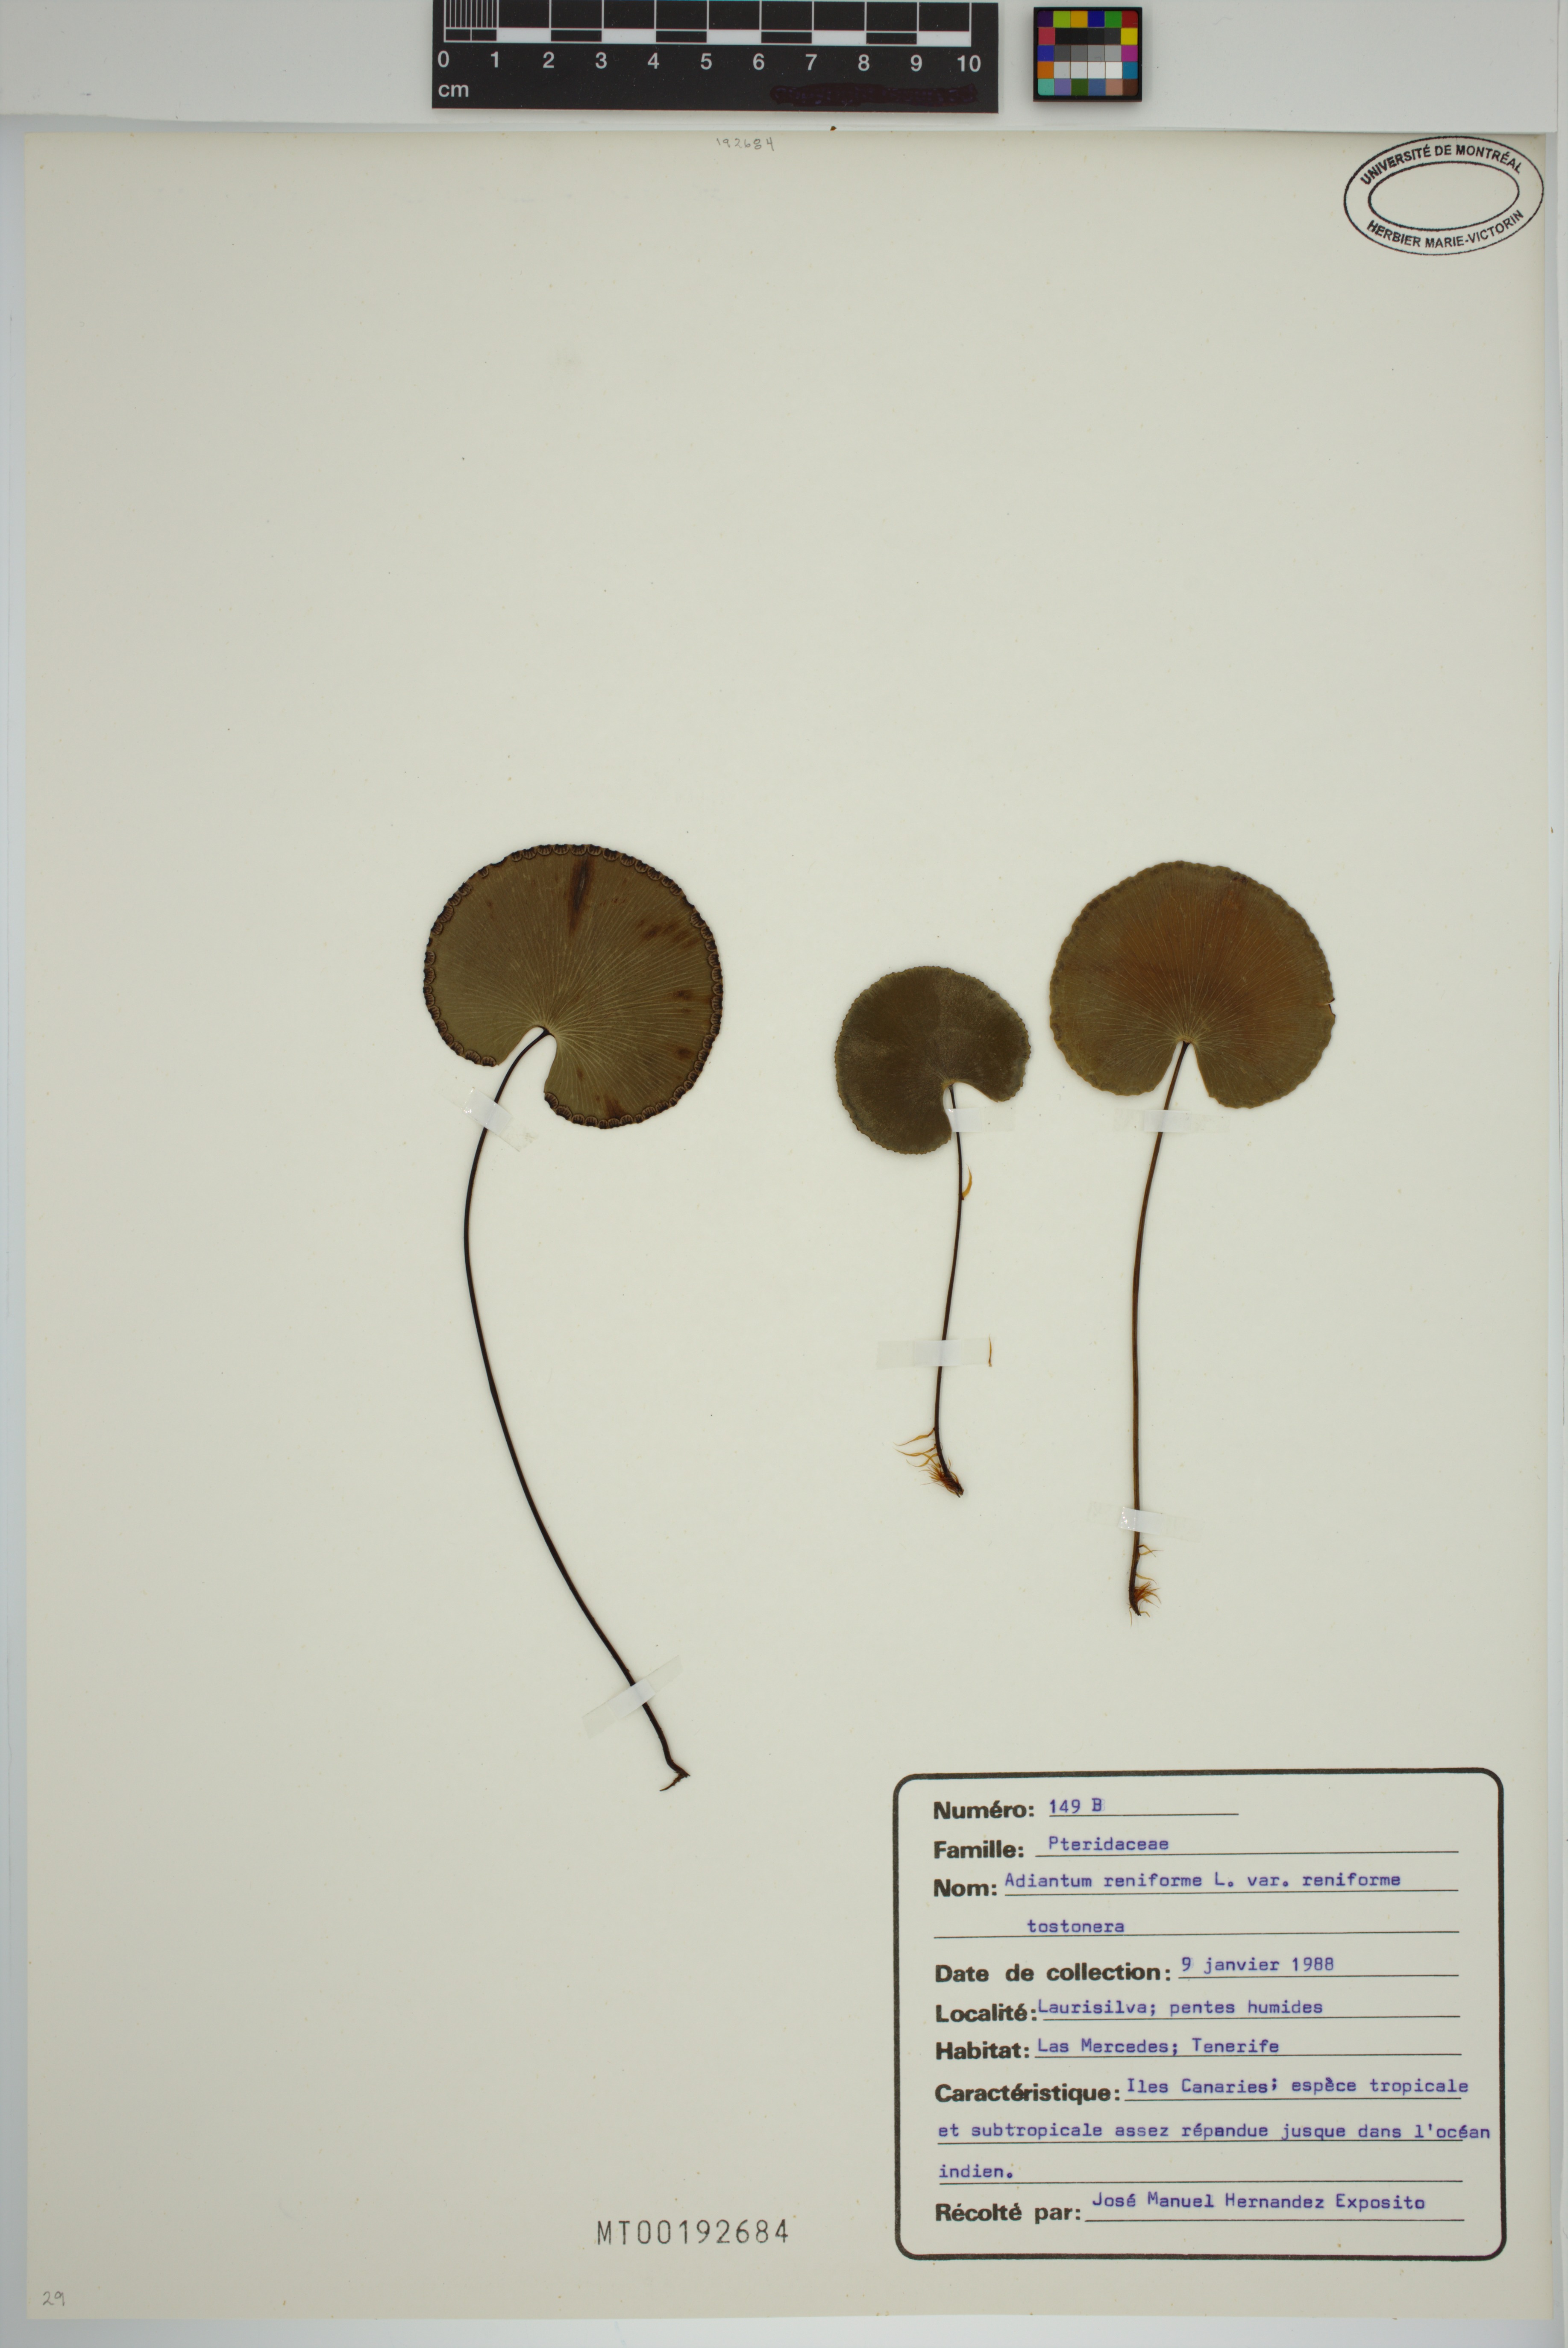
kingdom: Plantae
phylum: Tracheophyta
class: Polypodiopsida
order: Polypodiales
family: Pteridaceae
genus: Adiantum
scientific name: Adiantum reniforme
